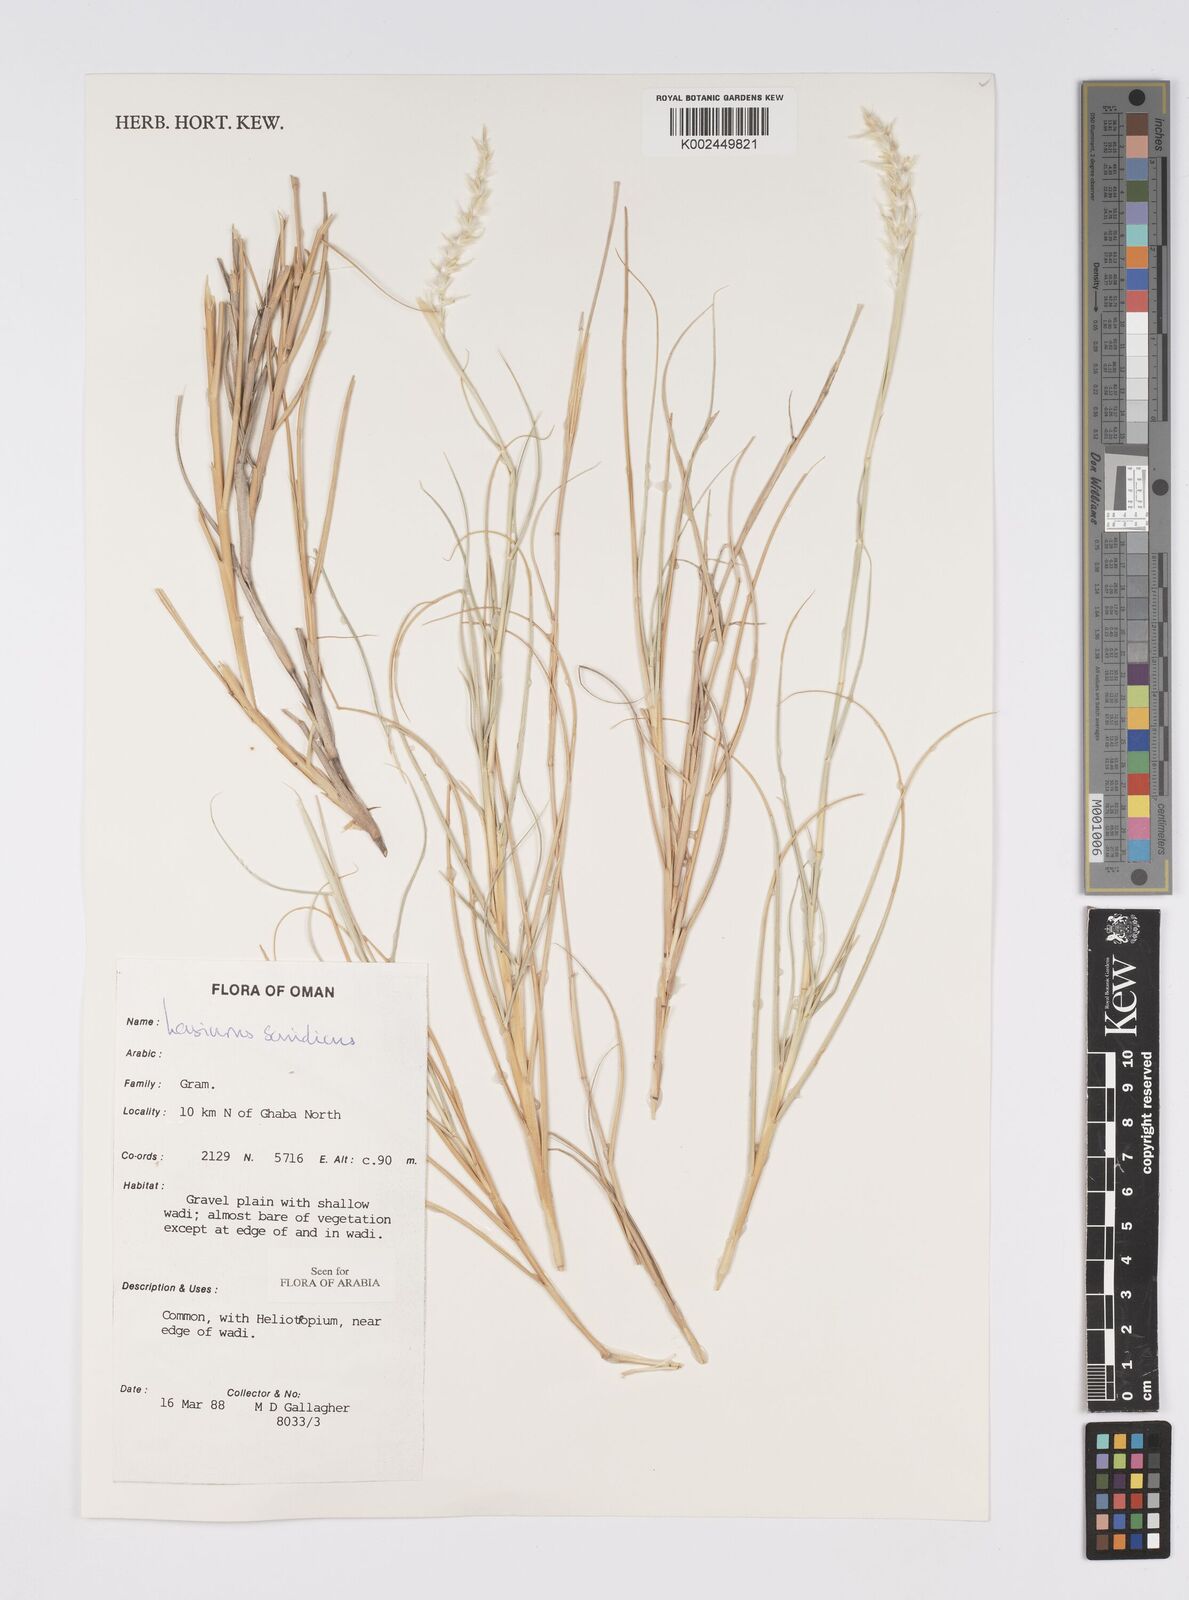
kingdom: Plantae
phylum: Tracheophyta
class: Liliopsida
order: Poales
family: Poaceae
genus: Lasiurus
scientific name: Lasiurus scindicus
